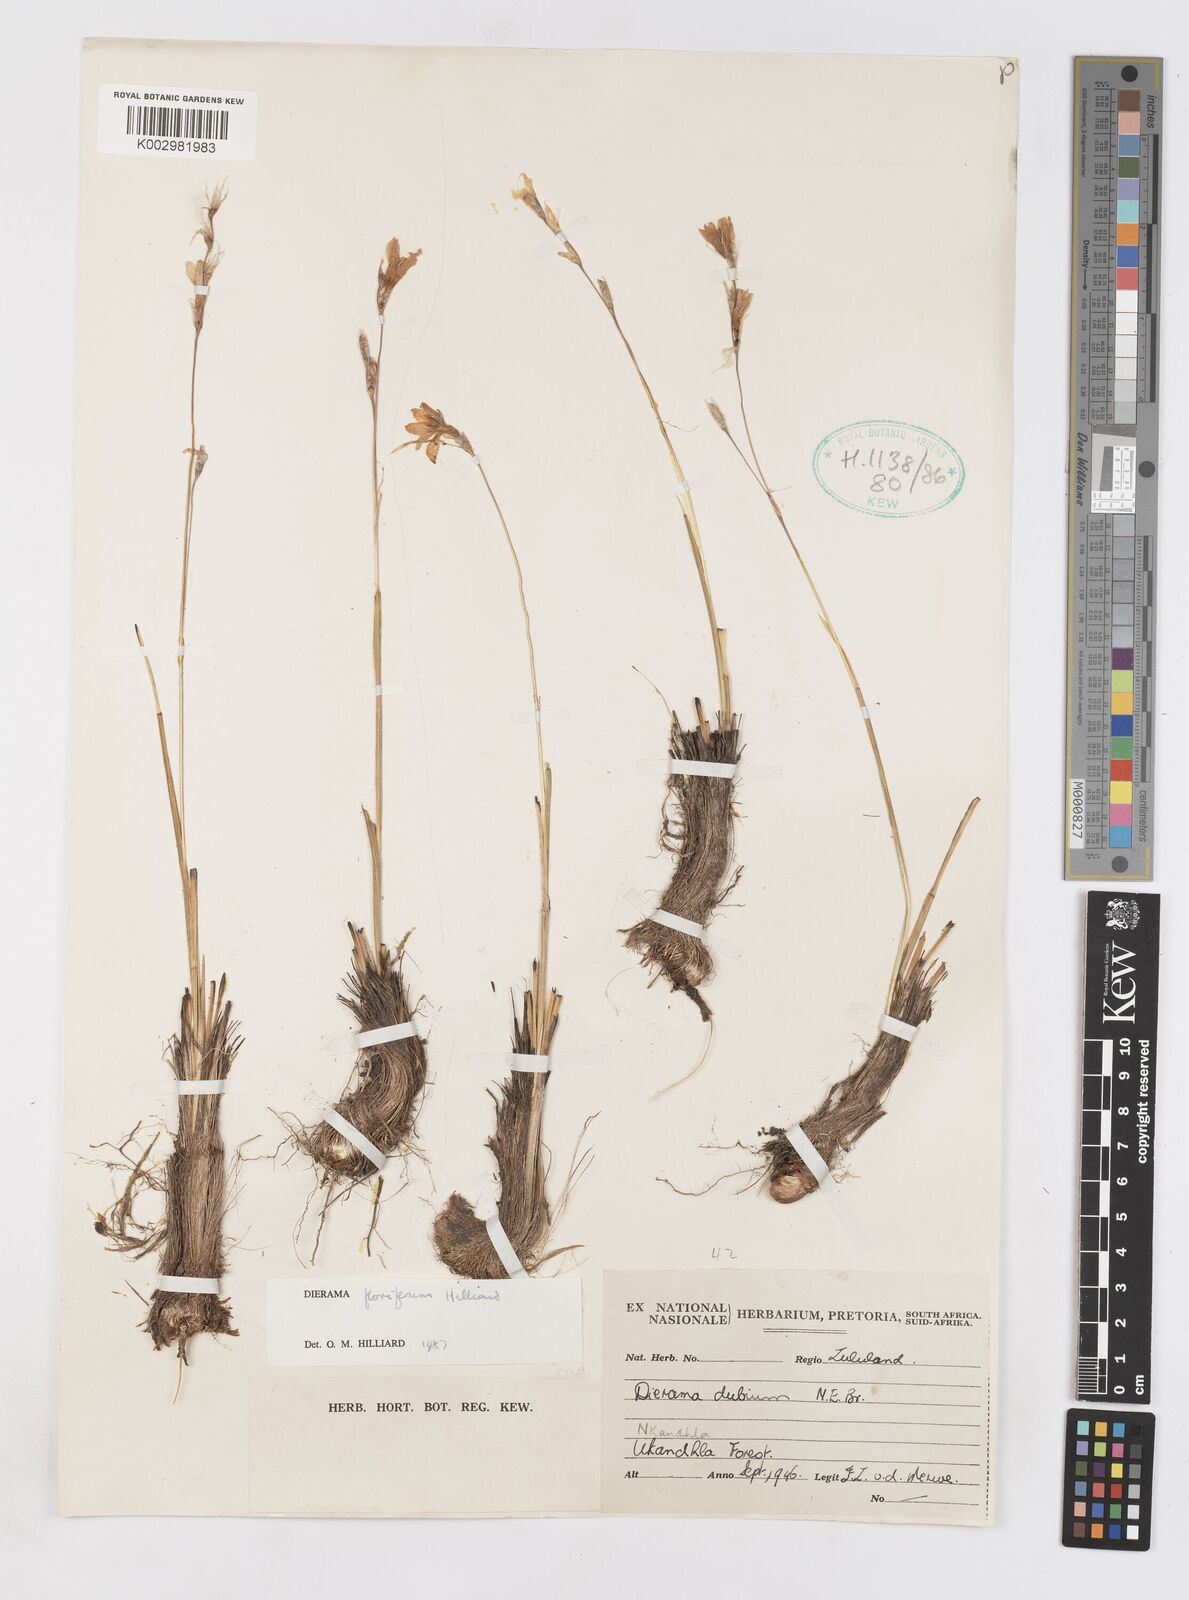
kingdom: Plantae
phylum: Tracheophyta
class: Liliopsida
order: Asparagales
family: Iridaceae
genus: Dierama
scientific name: Dierama floriferum
